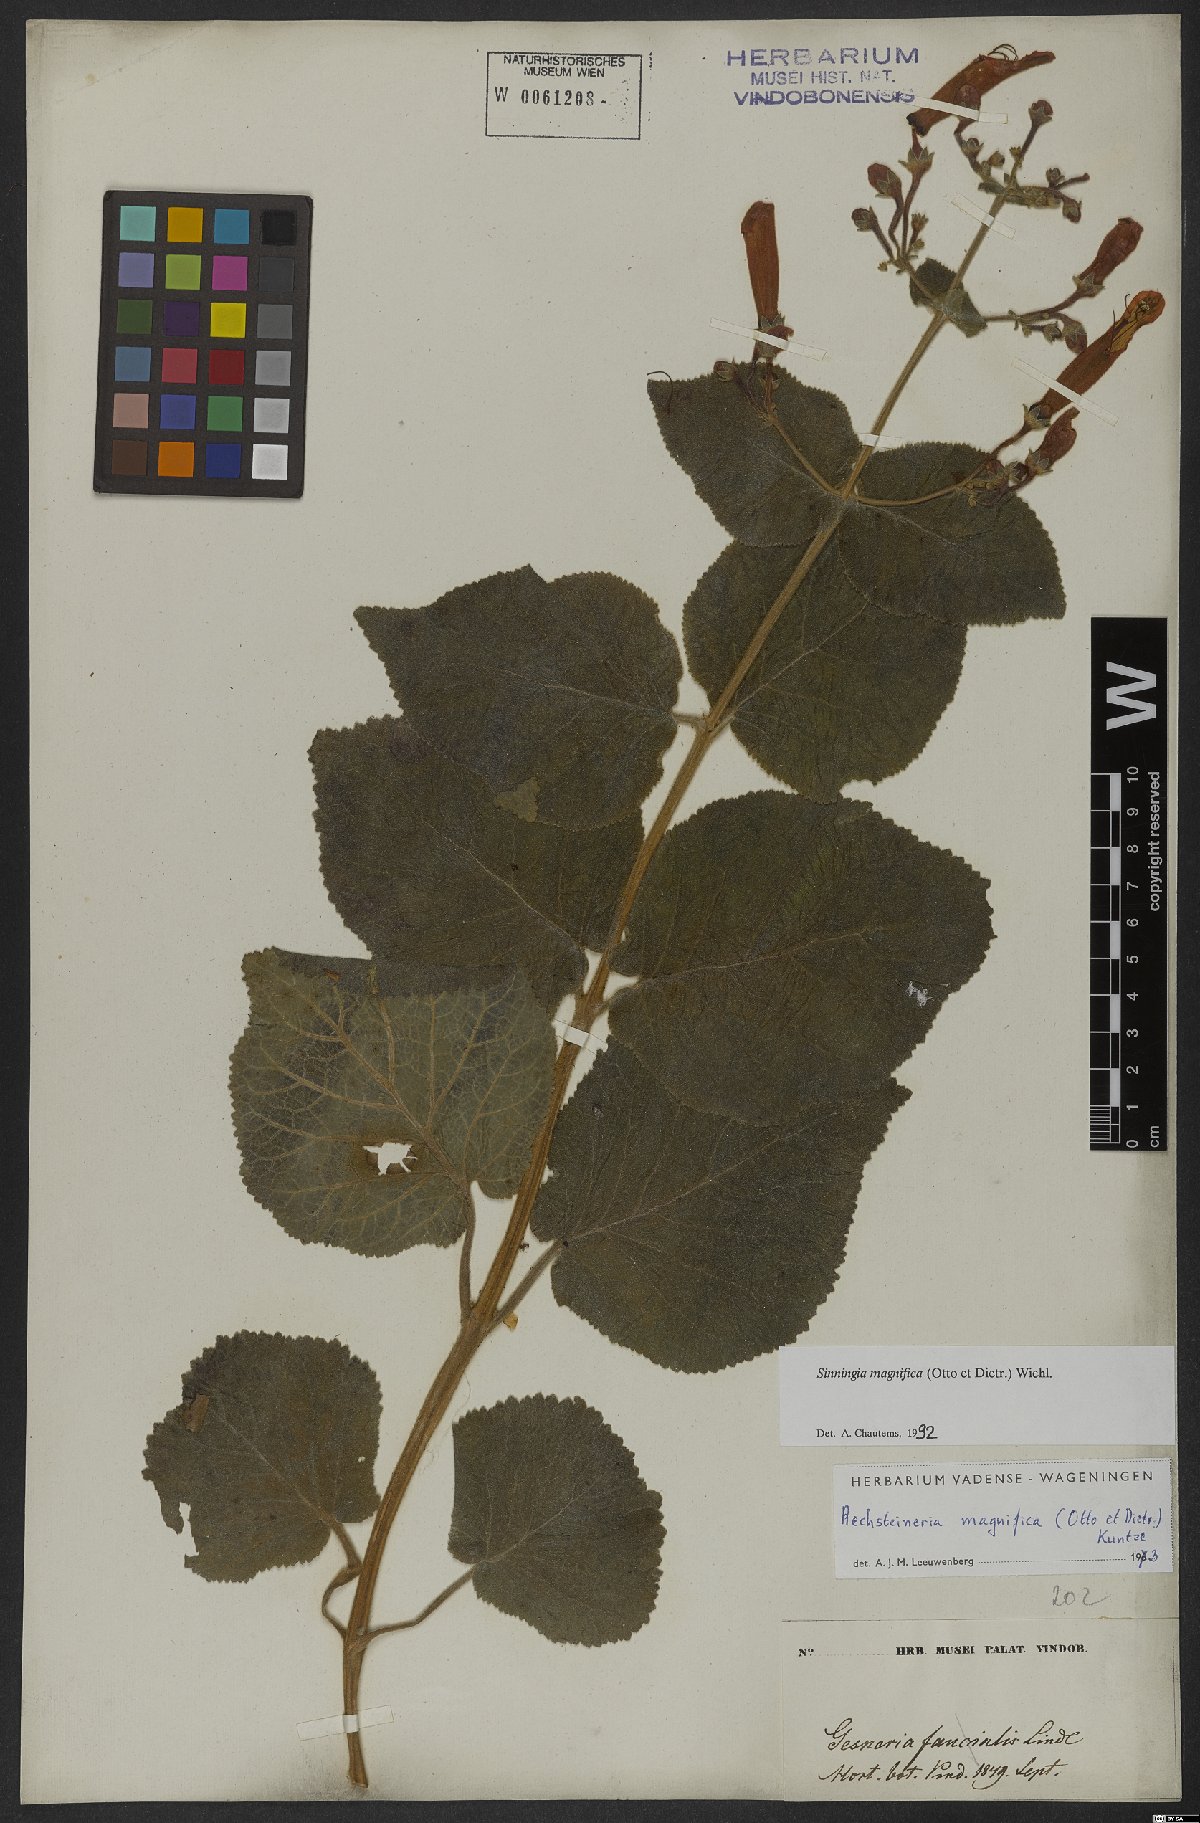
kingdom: Plantae
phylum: Tracheophyta
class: Magnoliopsida
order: Lamiales
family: Gesneriaceae
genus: Sinningia
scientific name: Sinningia magnifica
